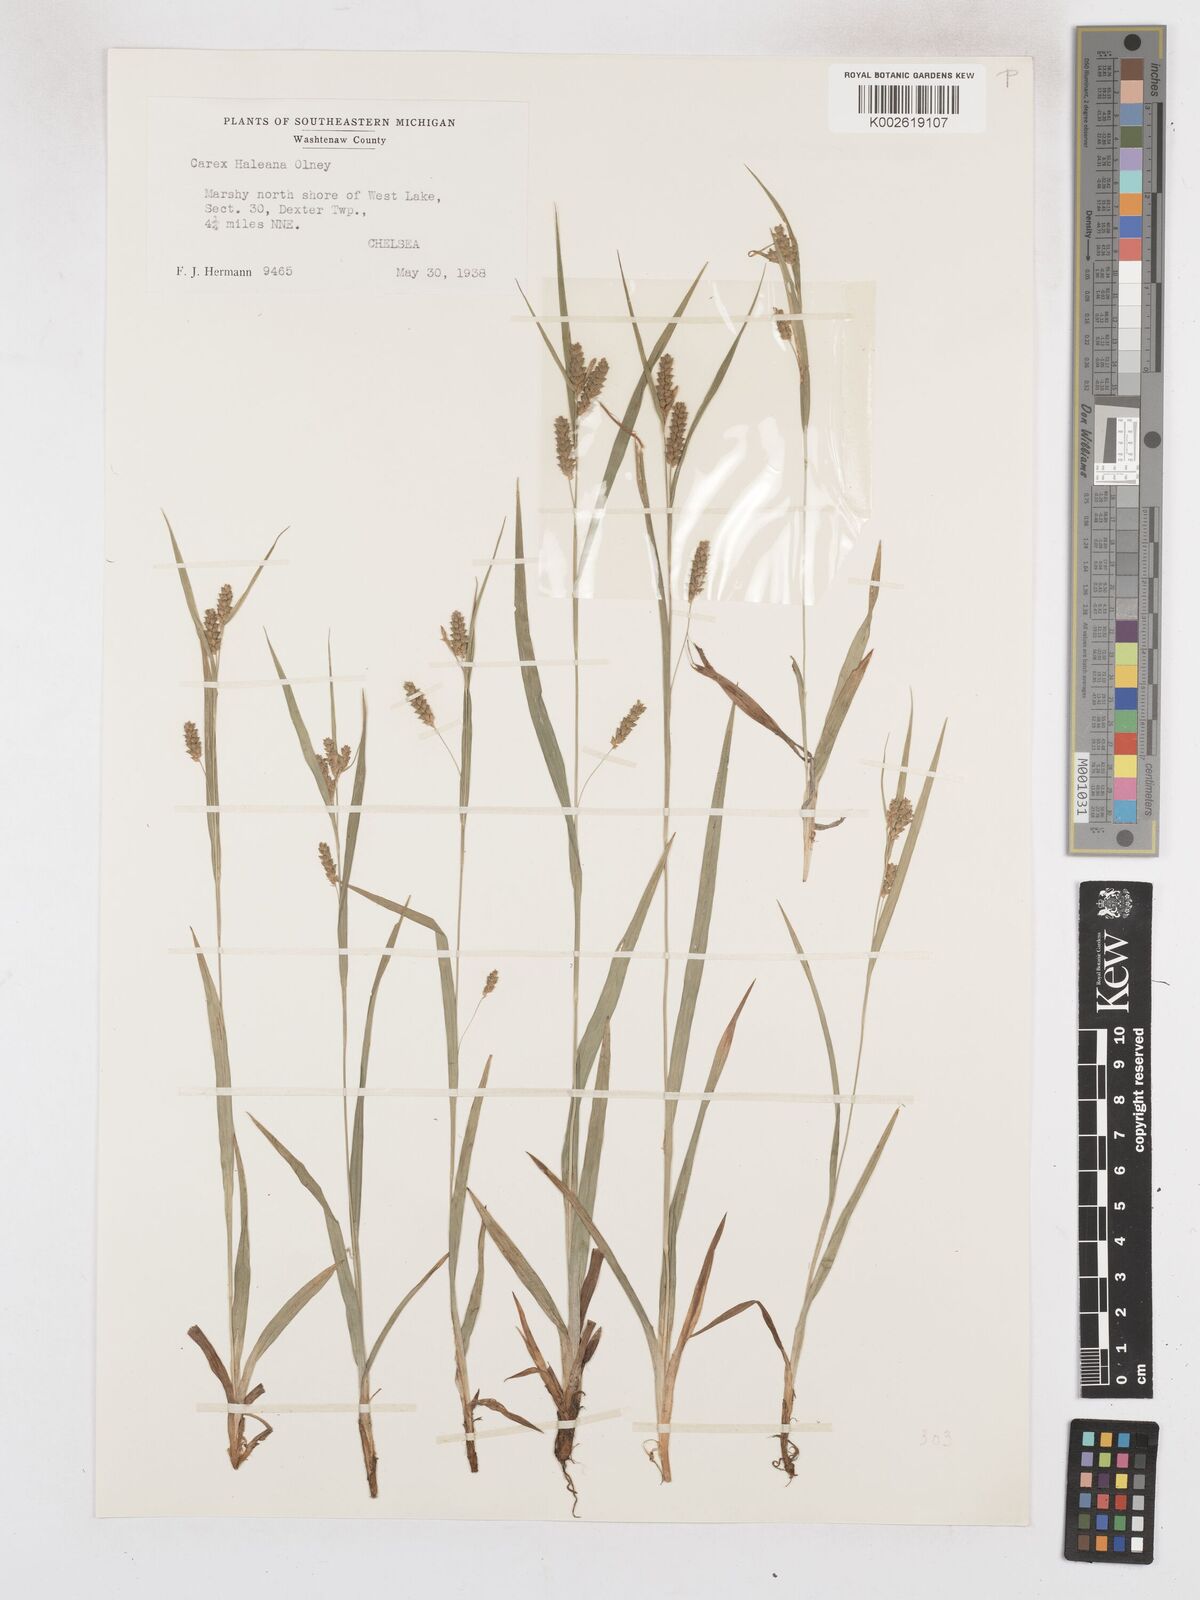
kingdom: Plantae
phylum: Tracheophyta
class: Liliopsida
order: Poales
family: Cyperaceae
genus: Carex
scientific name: Carex granularis
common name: Granular sedge
